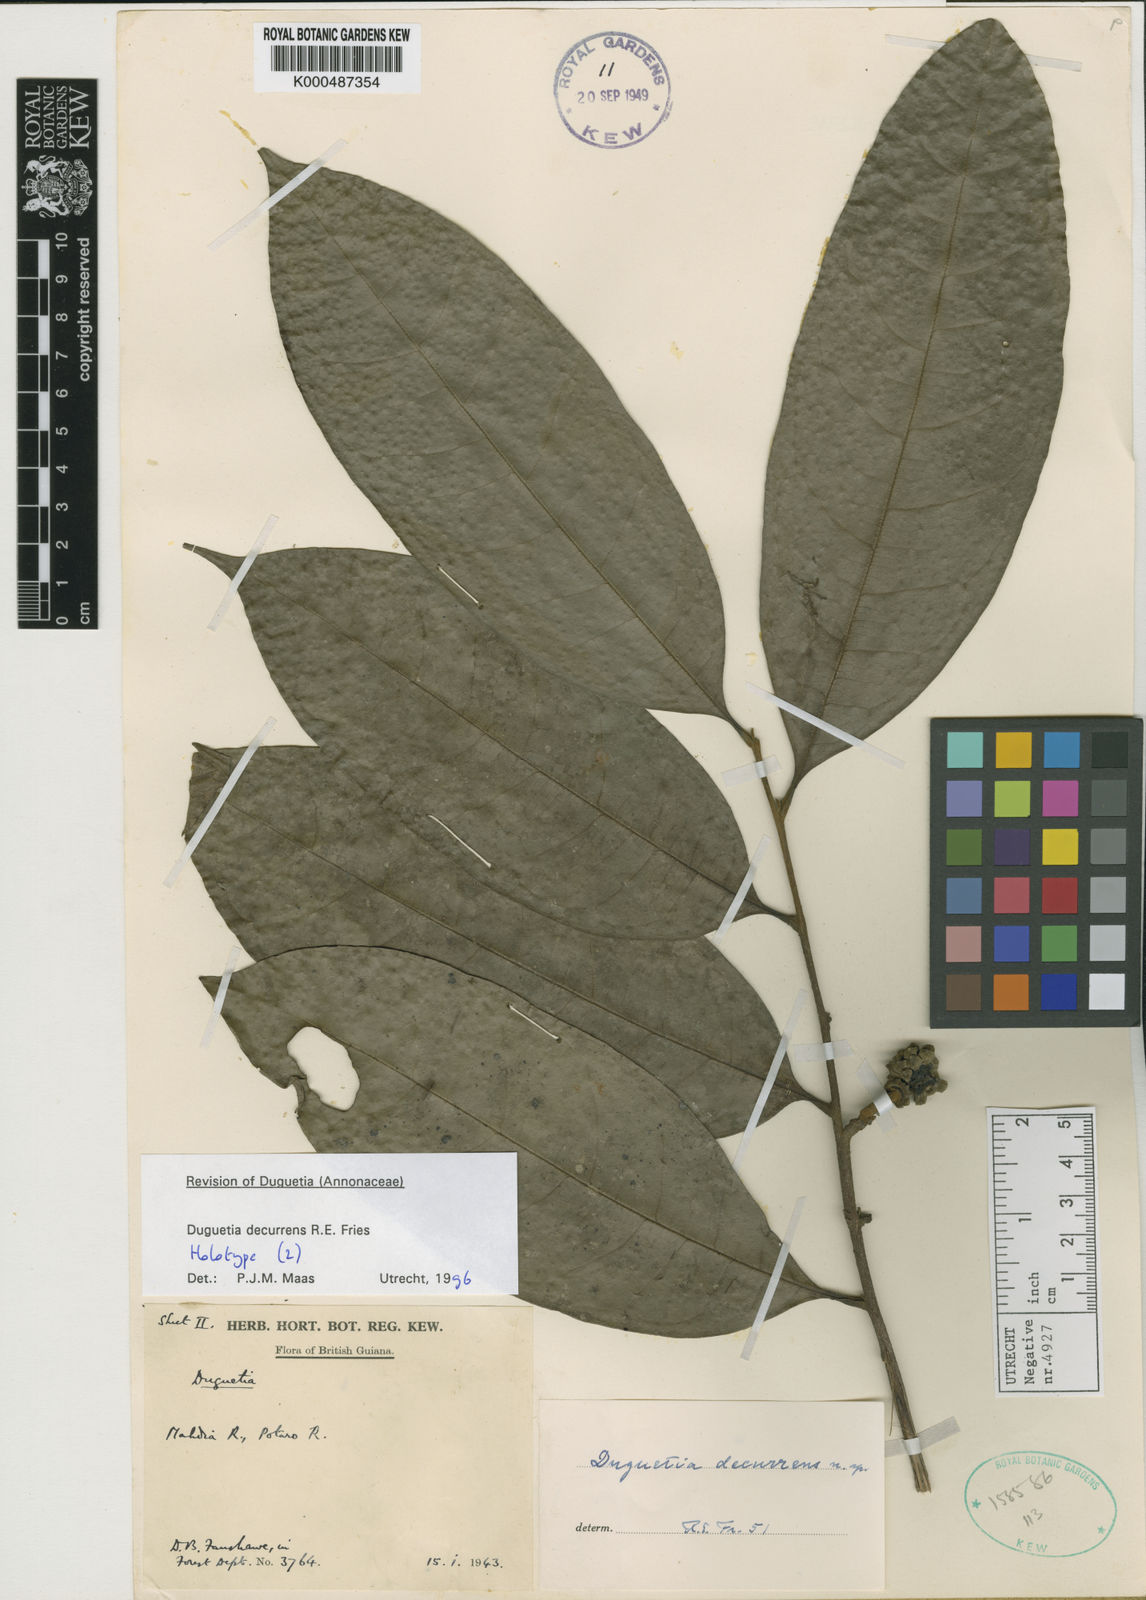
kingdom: Plantae
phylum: Tracheophyta
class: Magnoliopsida
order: Magnoliales
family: Annonaceae
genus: Duguetia
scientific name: Duguetia decurrens
